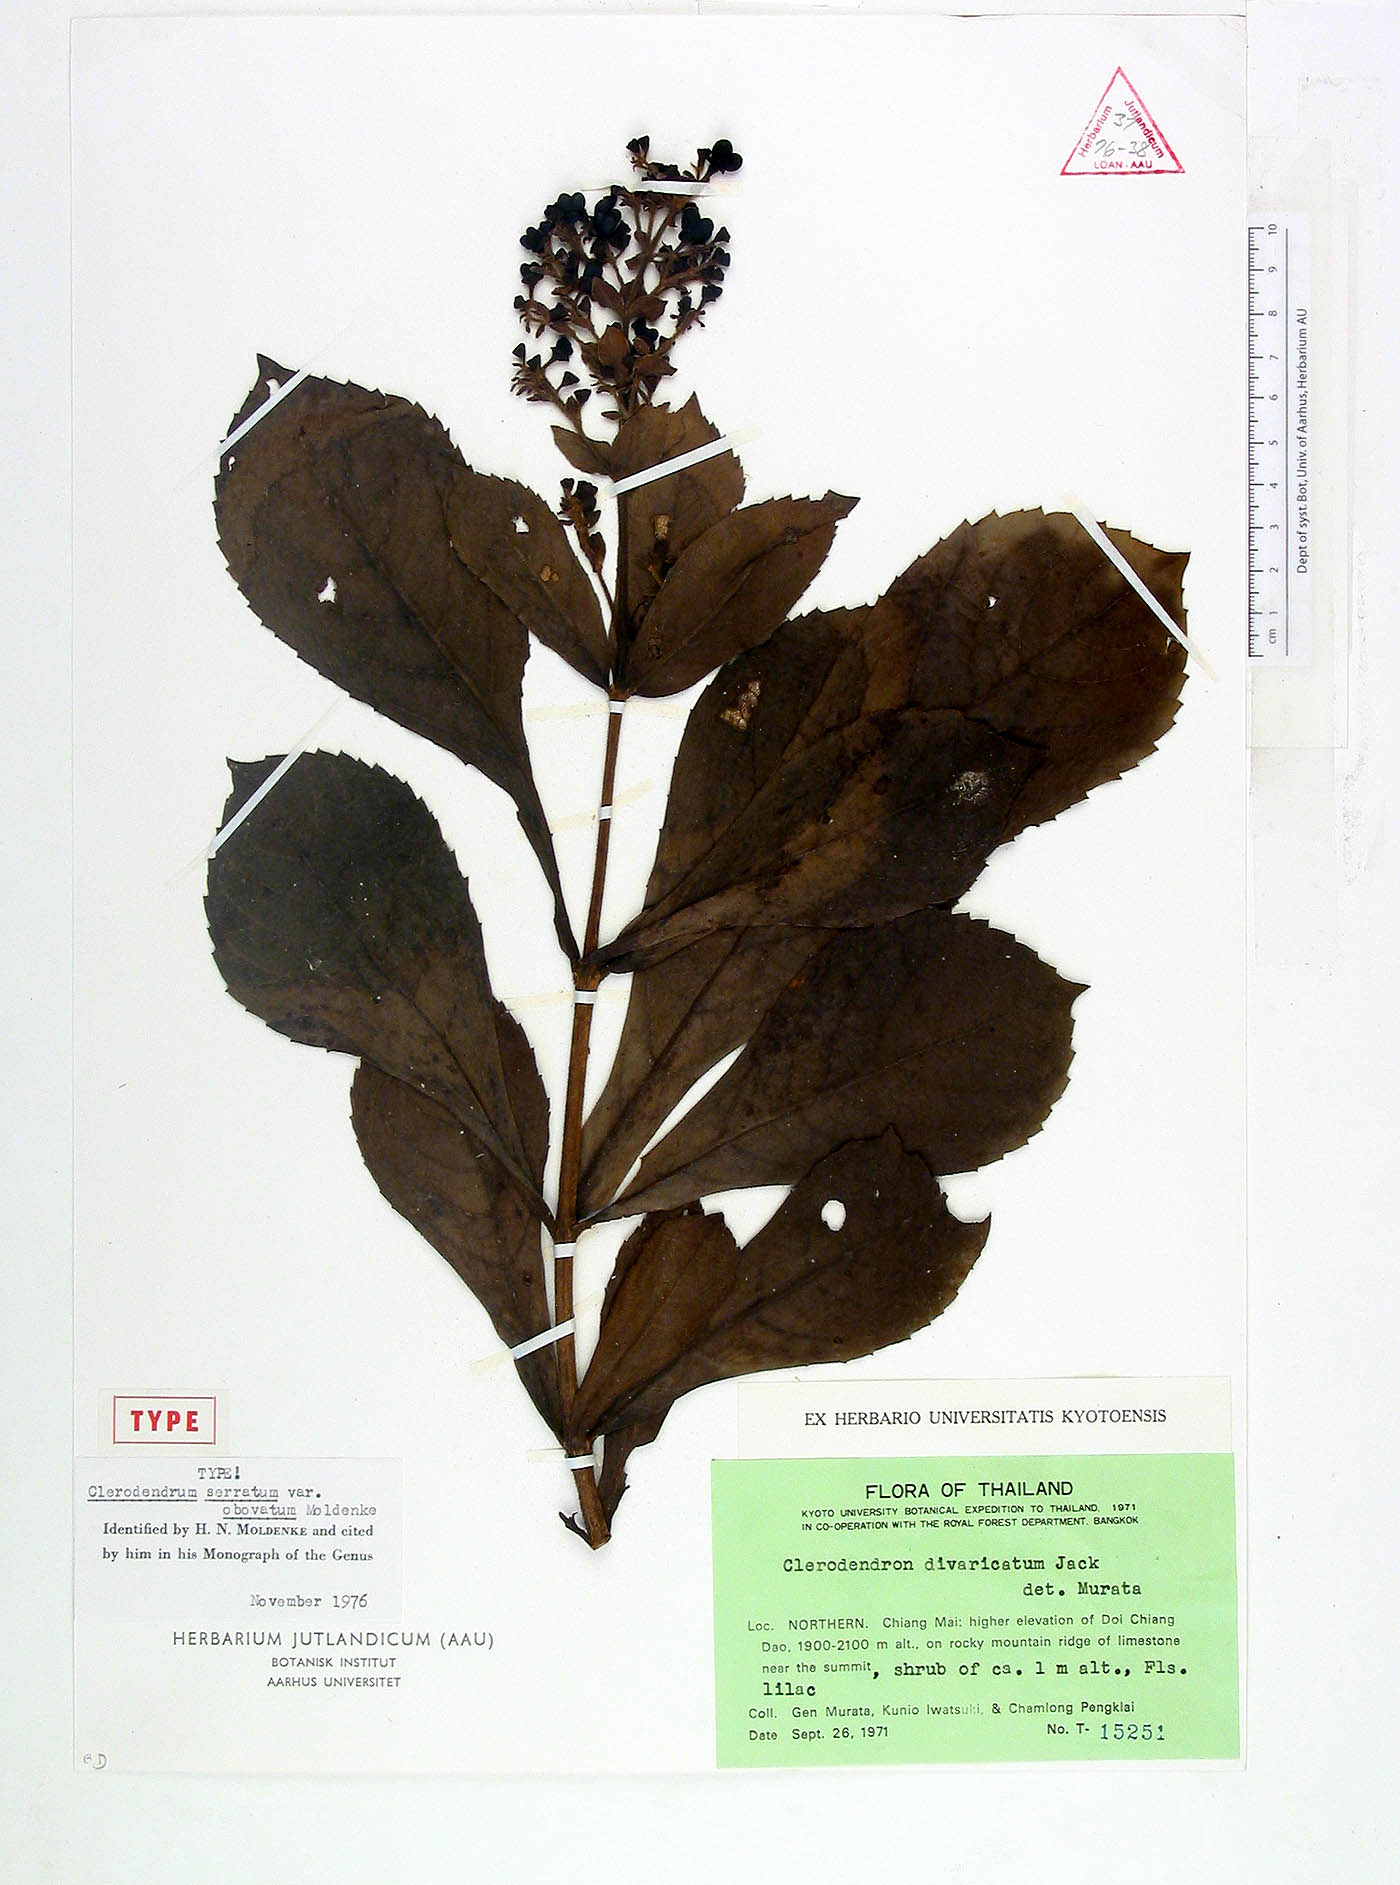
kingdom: Plantae
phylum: Tracheophyta
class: Magnoliopsida
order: Lamiales
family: Lamiaceae
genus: Rotheca
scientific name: Rotheca serrata
